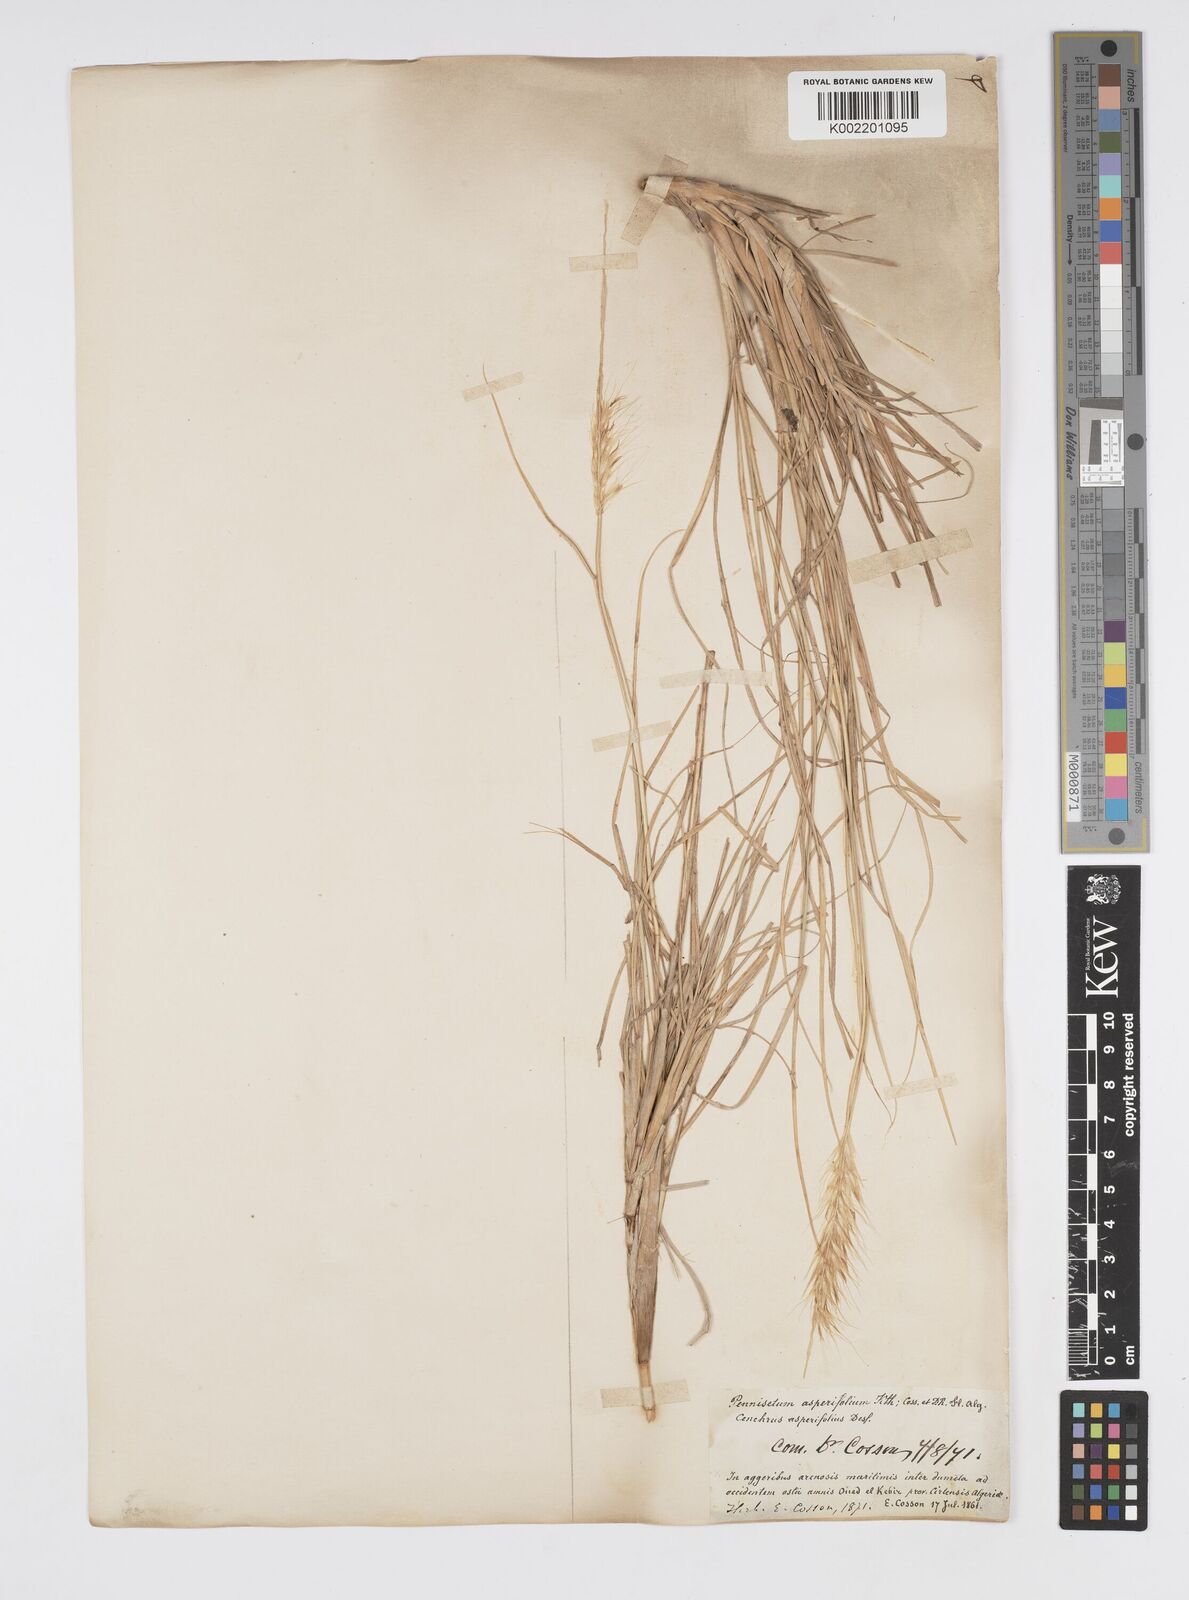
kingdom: Plantae
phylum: Tracheophyta
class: Liliopsida
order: Poales
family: Poaceae
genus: Cenchrus
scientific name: Cenchrus setaceus
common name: Crimson fountaingrass
